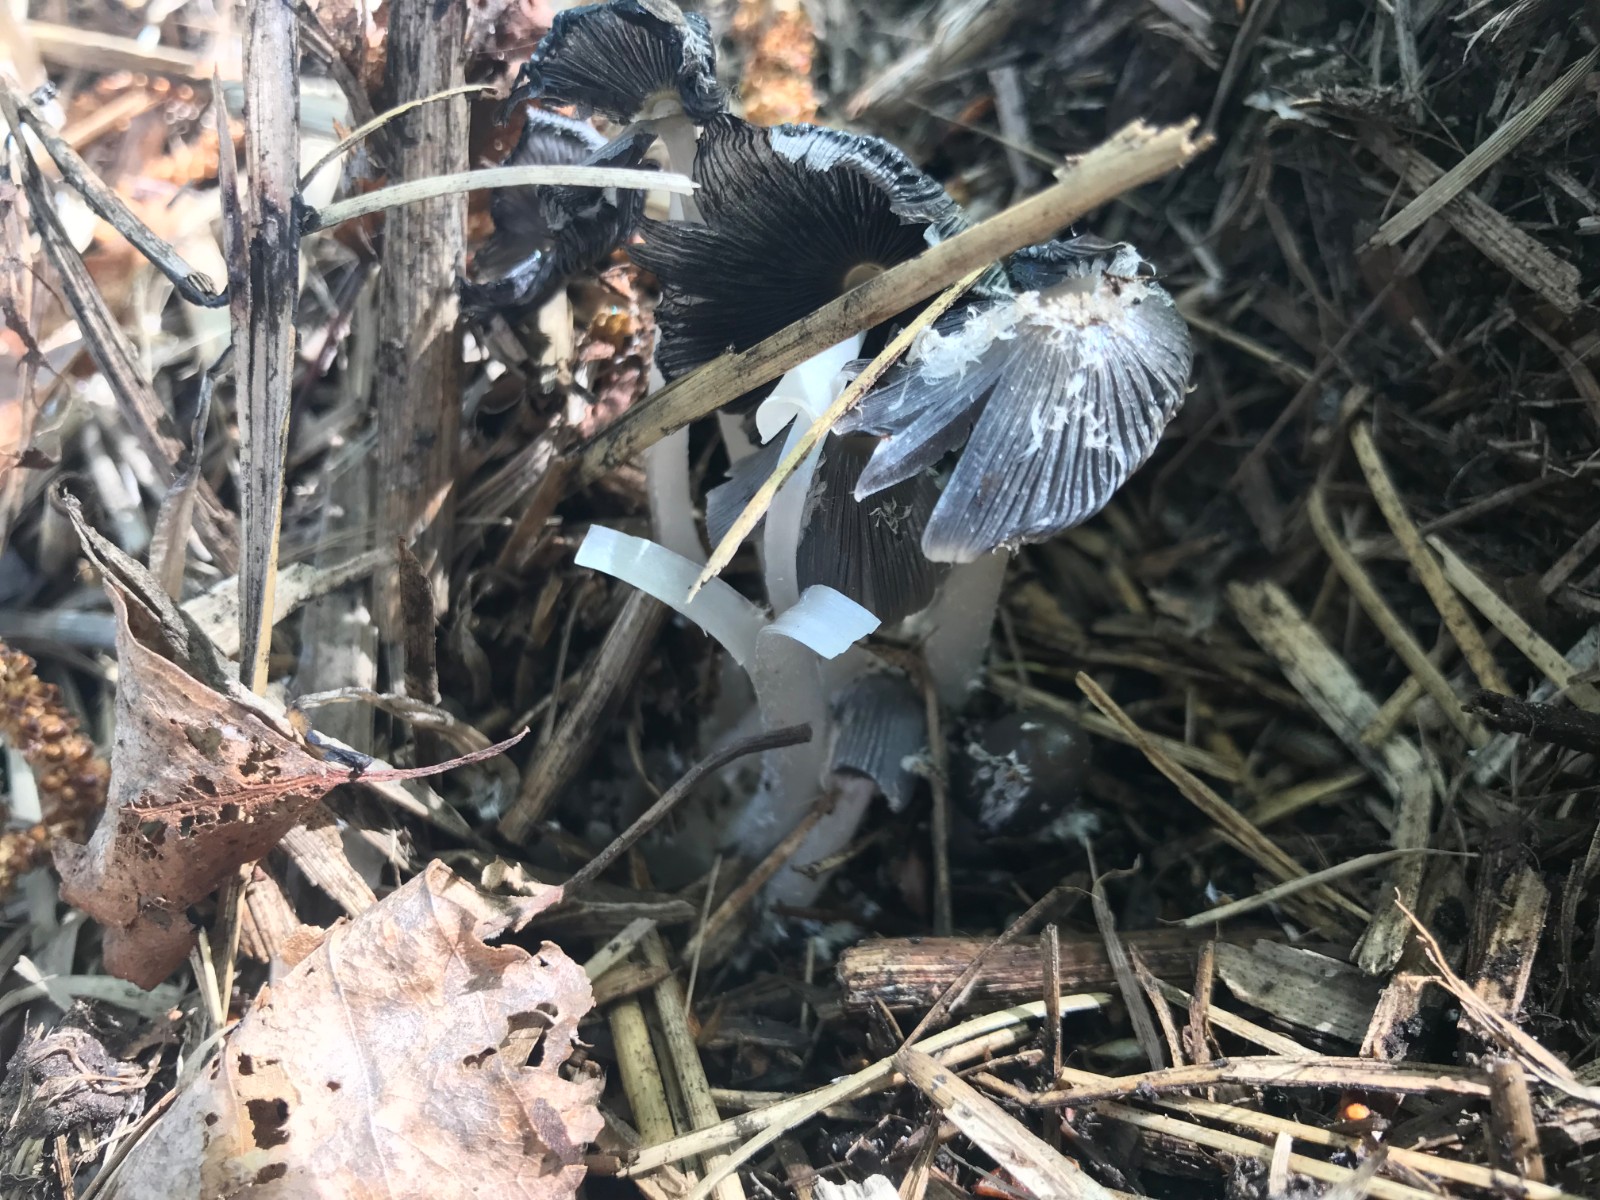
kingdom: Fungi
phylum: Basidiomycota
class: Agaricomycetes
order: Agaricales
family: Psathyrellaceae
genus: Coprinopsis
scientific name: Coprinopsis lagopus
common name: dunstokket blækhat
